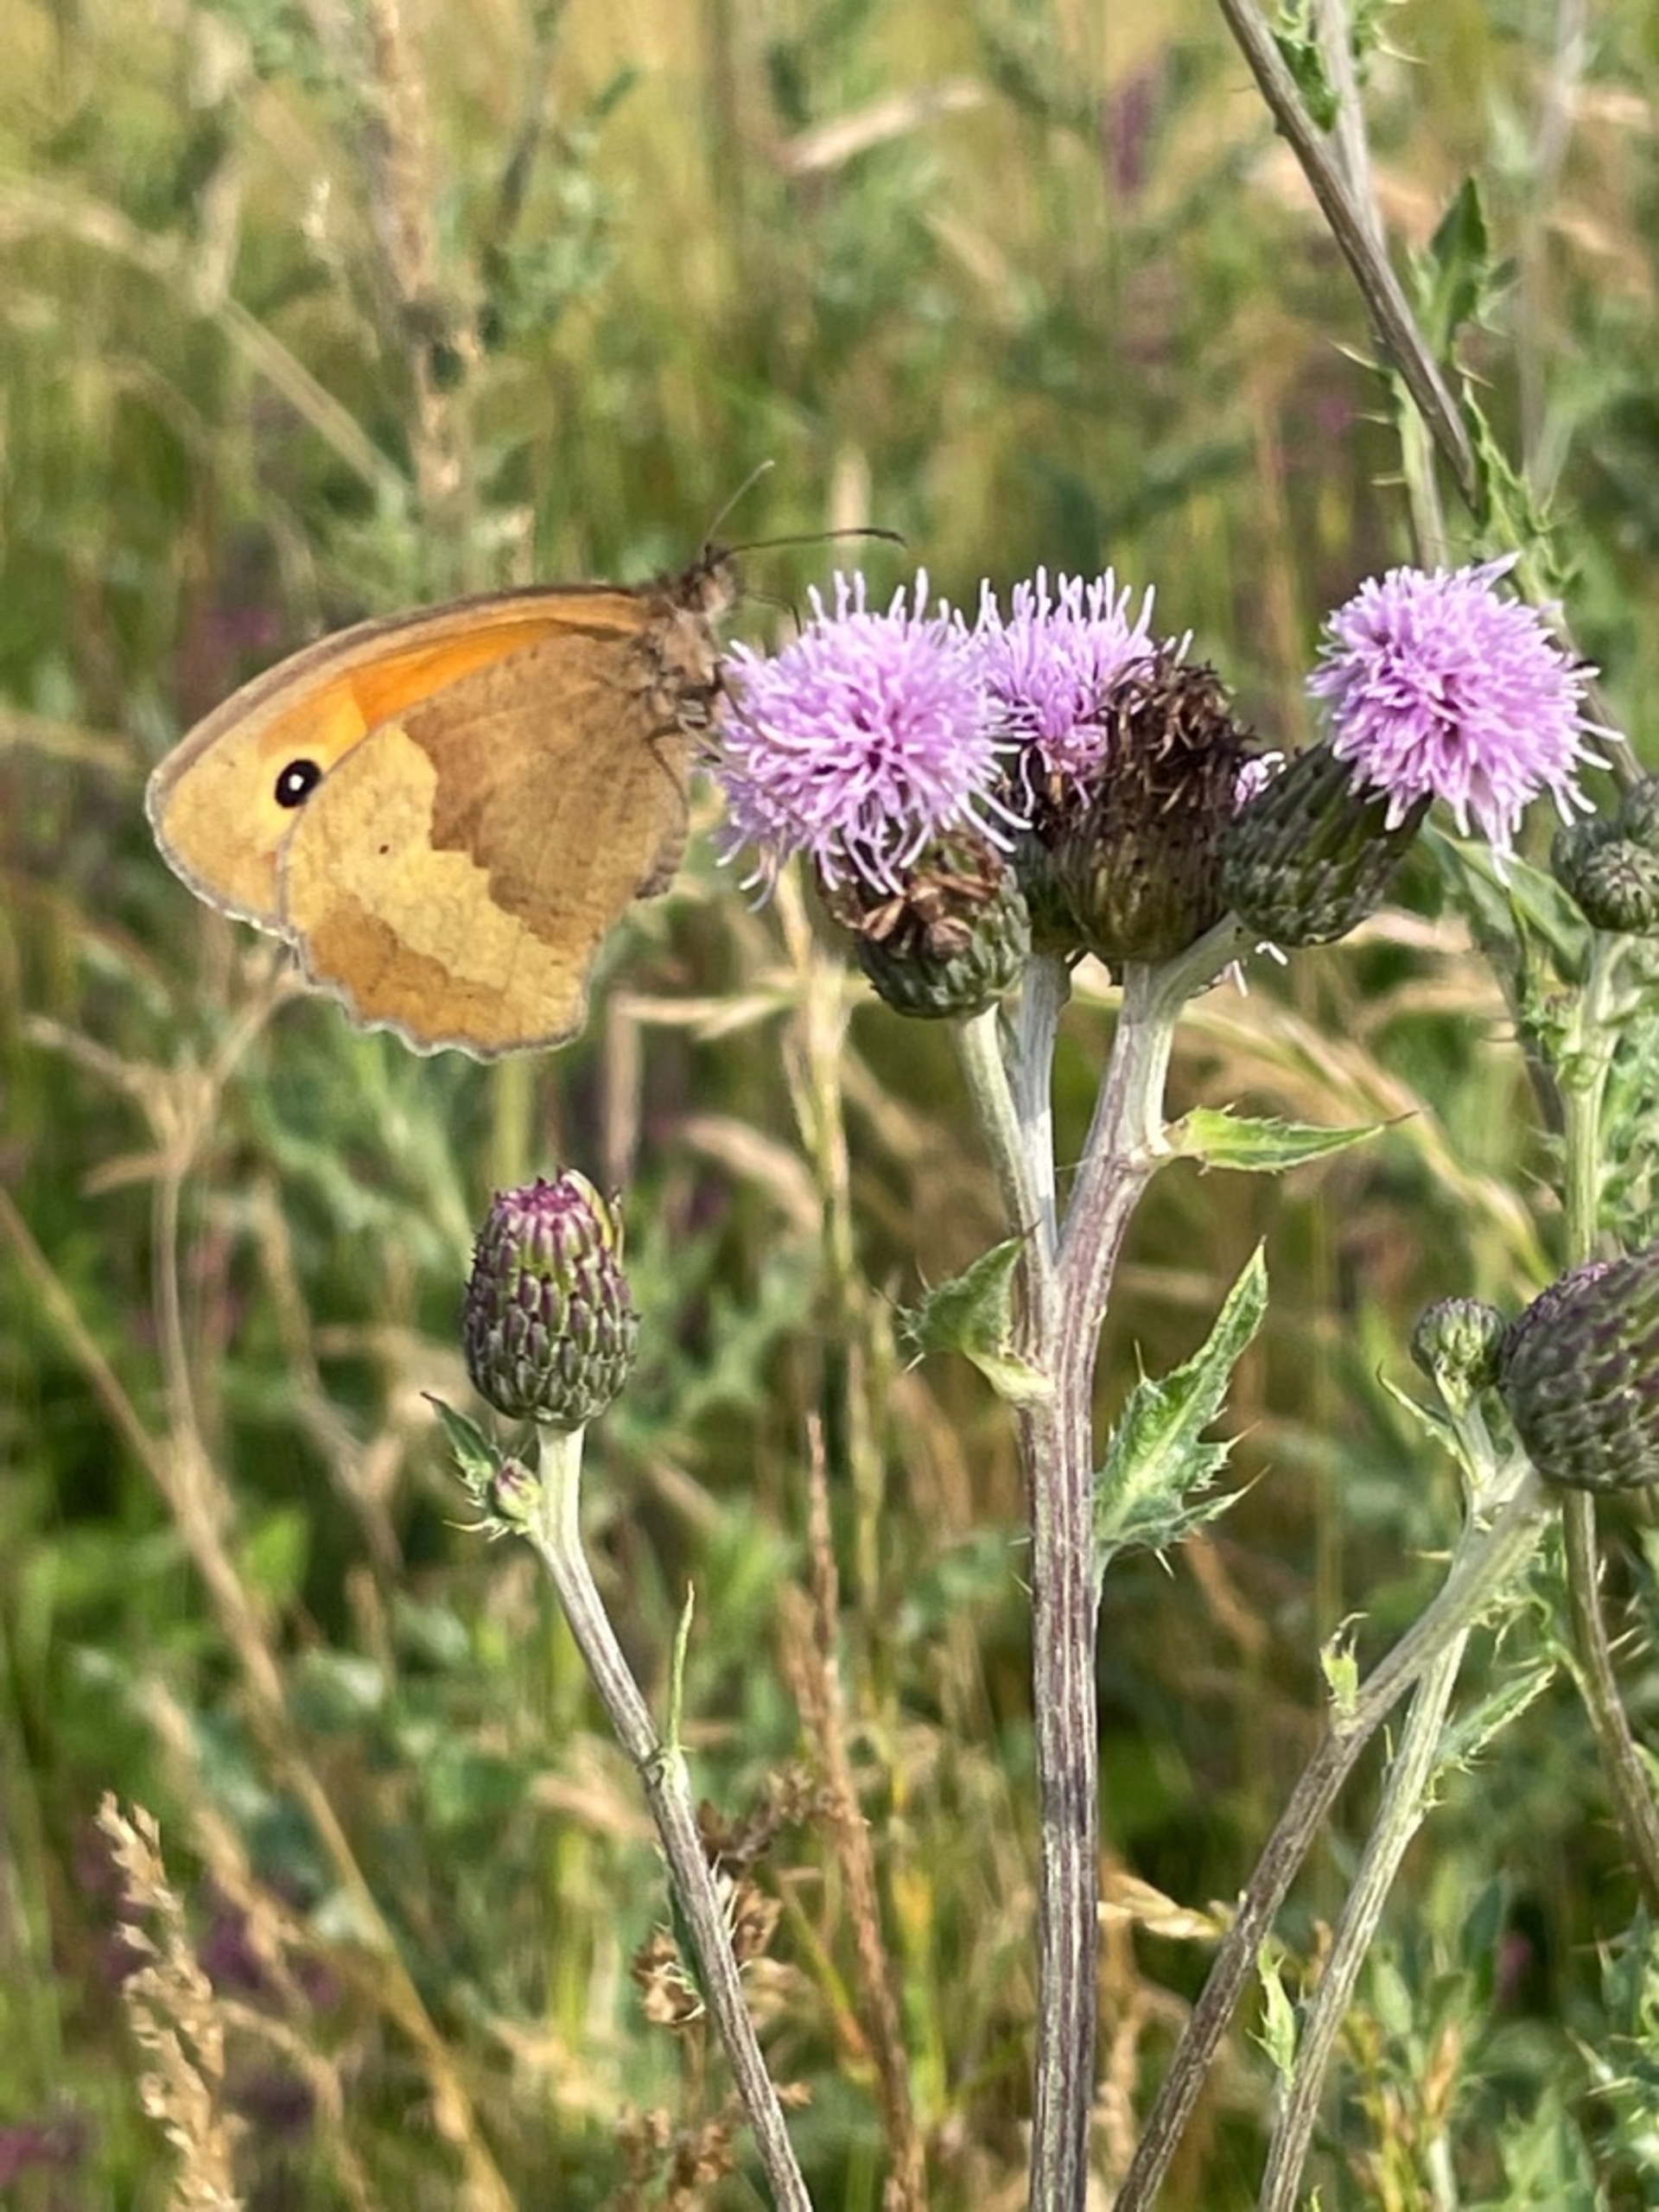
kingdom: Animalia
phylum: Arthropoda
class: Insecta
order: Lepidoptera
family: Nymphalidae
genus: Maniola
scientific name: Maniola jurtina
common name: Græsrandøje
